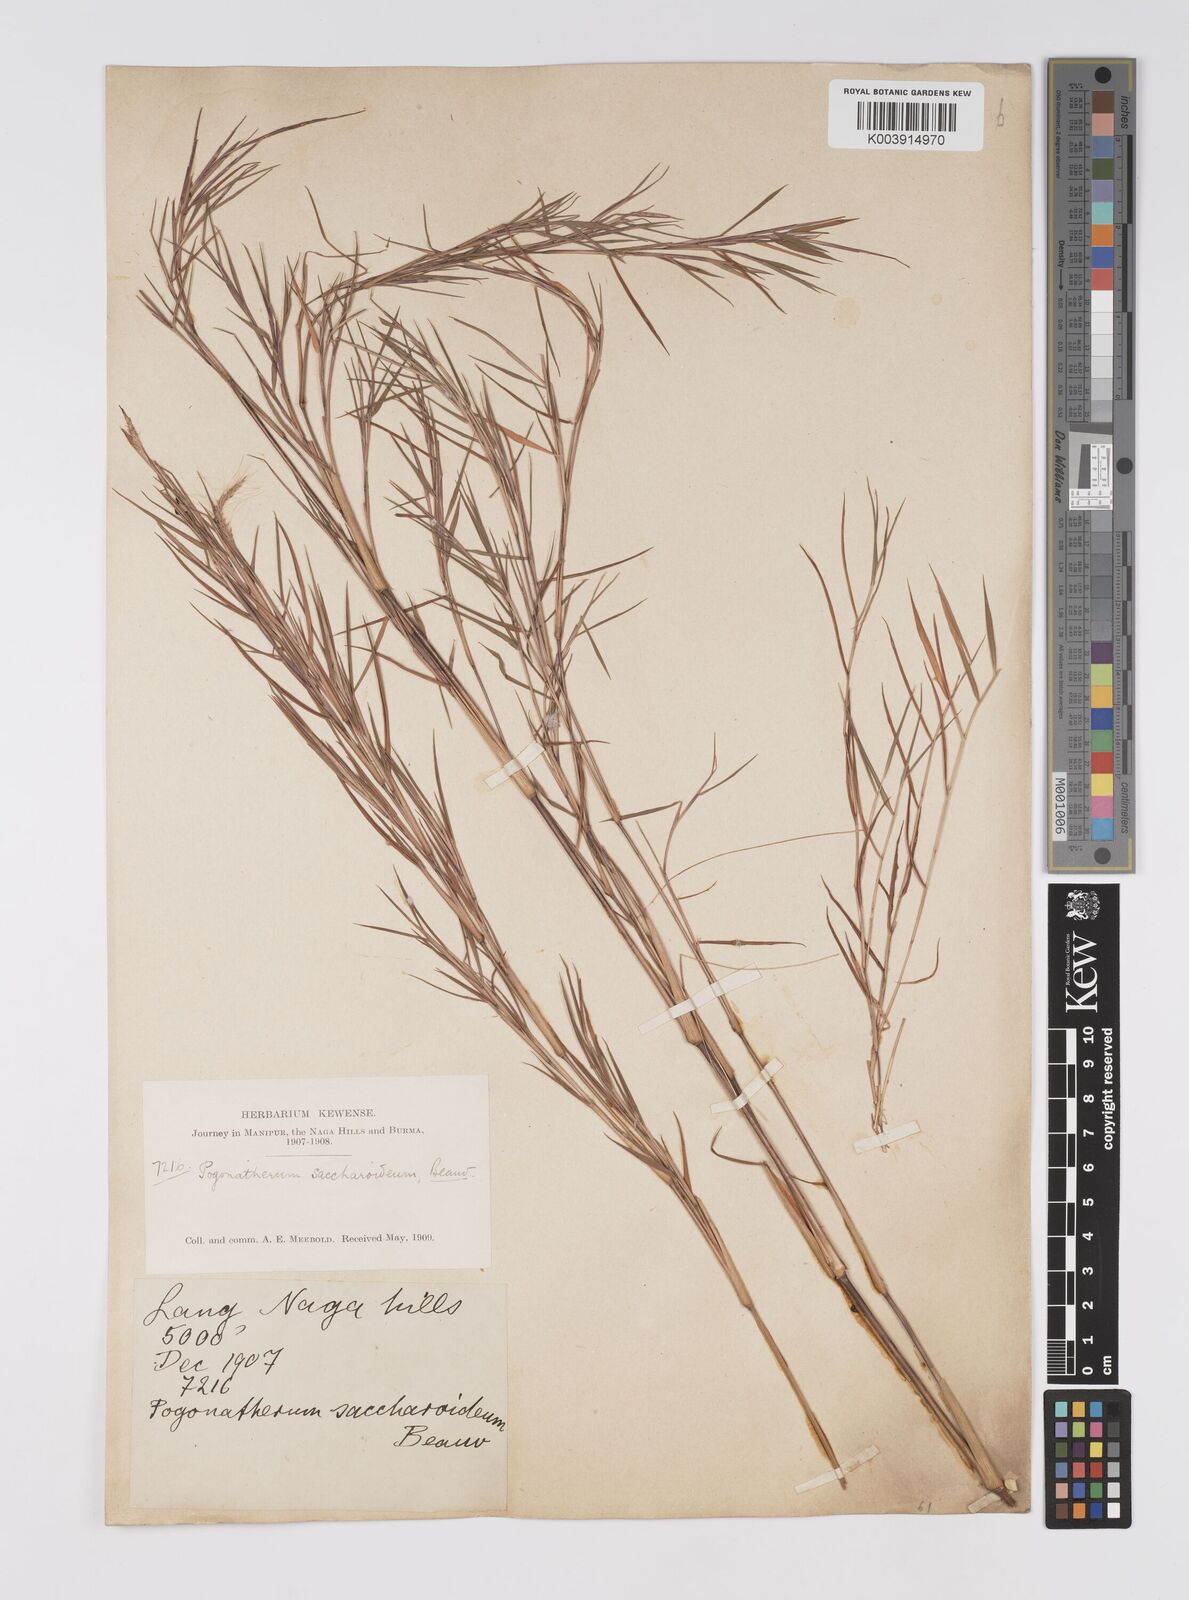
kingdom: Plantae
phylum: Tracheophyta
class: Liliopsida
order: Poales
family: Poaceae
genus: Pogonatherum
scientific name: Pogonatherum paniceum
